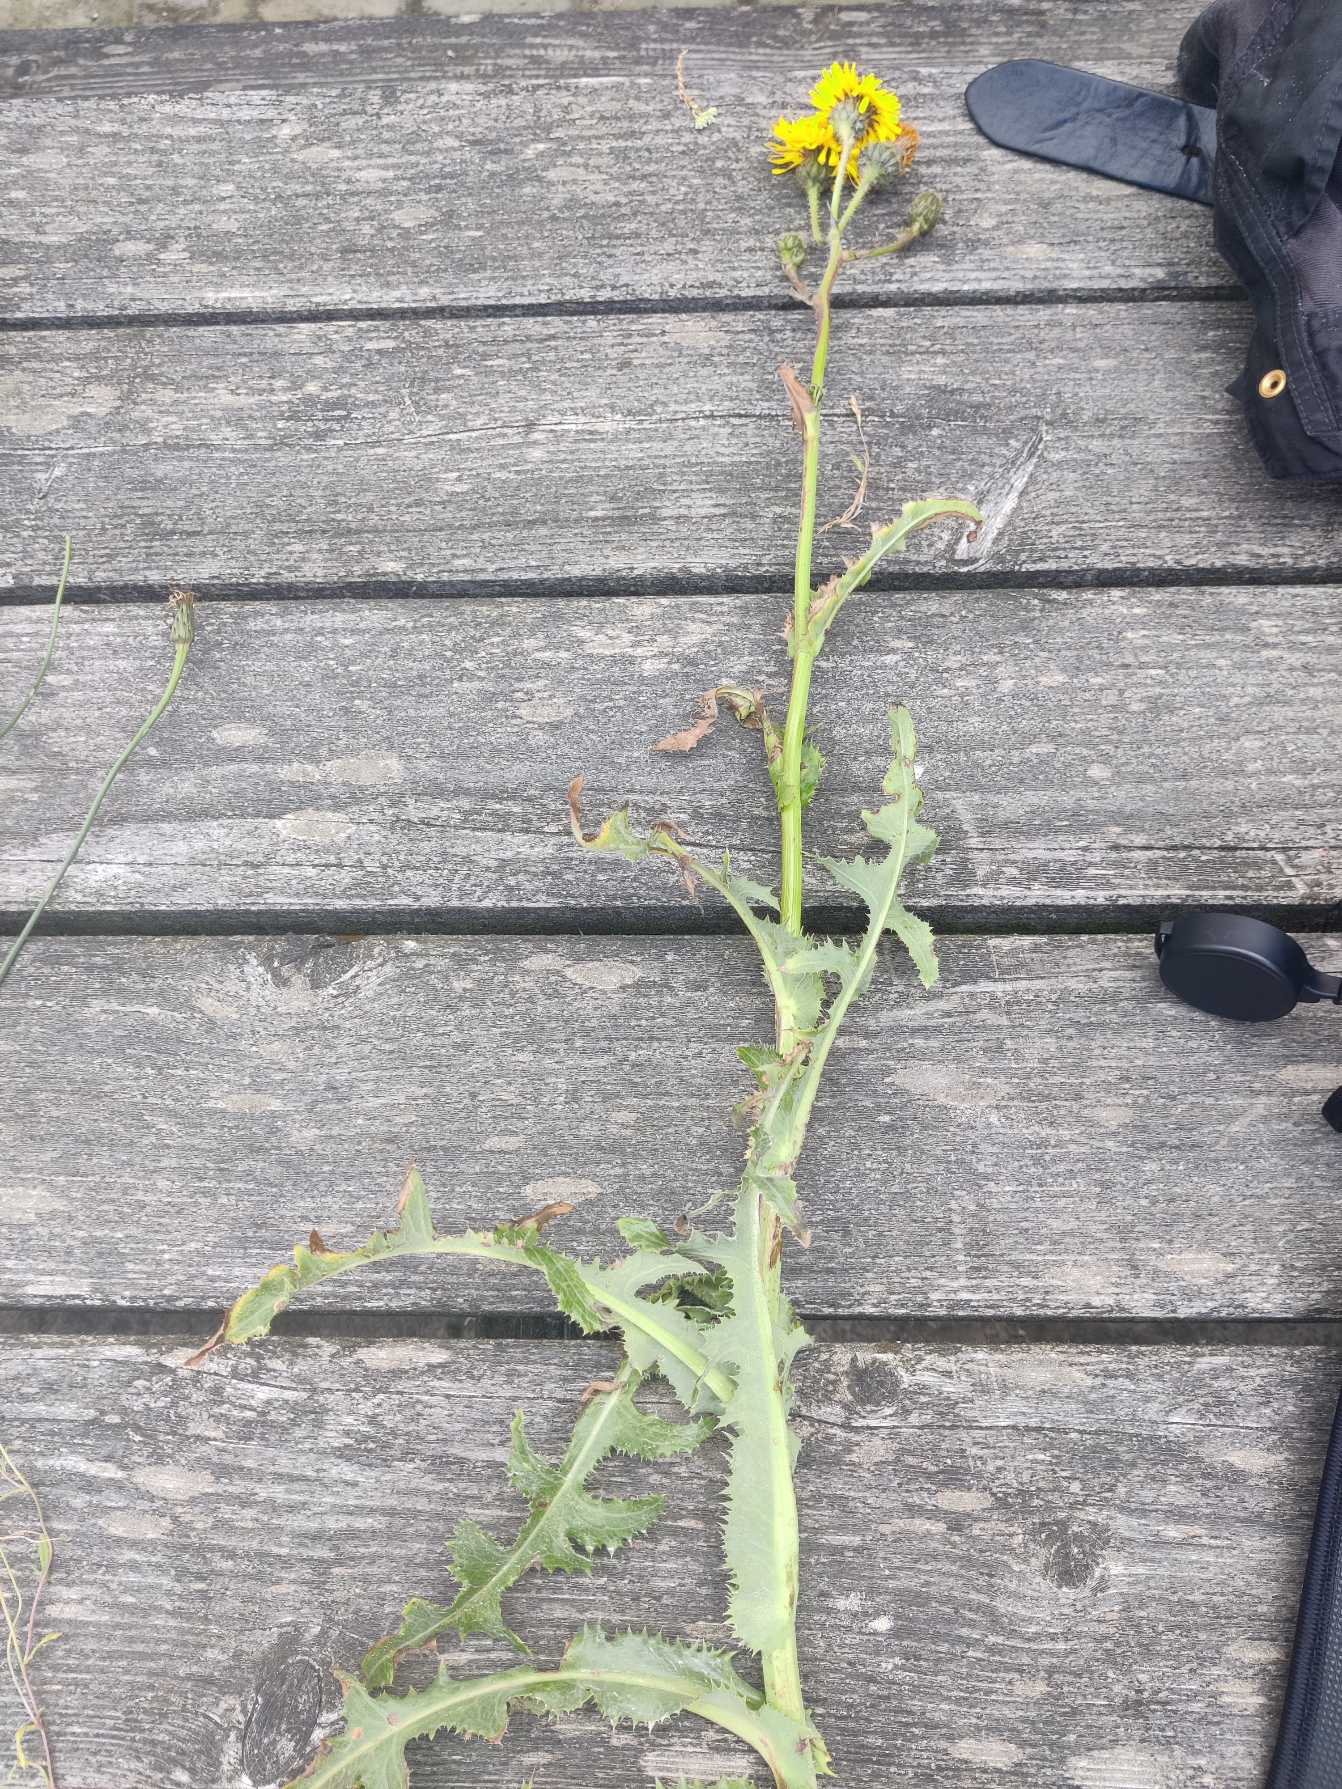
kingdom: Plantae
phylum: Tracheophyta
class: Magnoliopsida
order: Asterales
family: Asteraceae
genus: Sonchus
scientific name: Sonchus arvensis
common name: Ager-svinemælk
